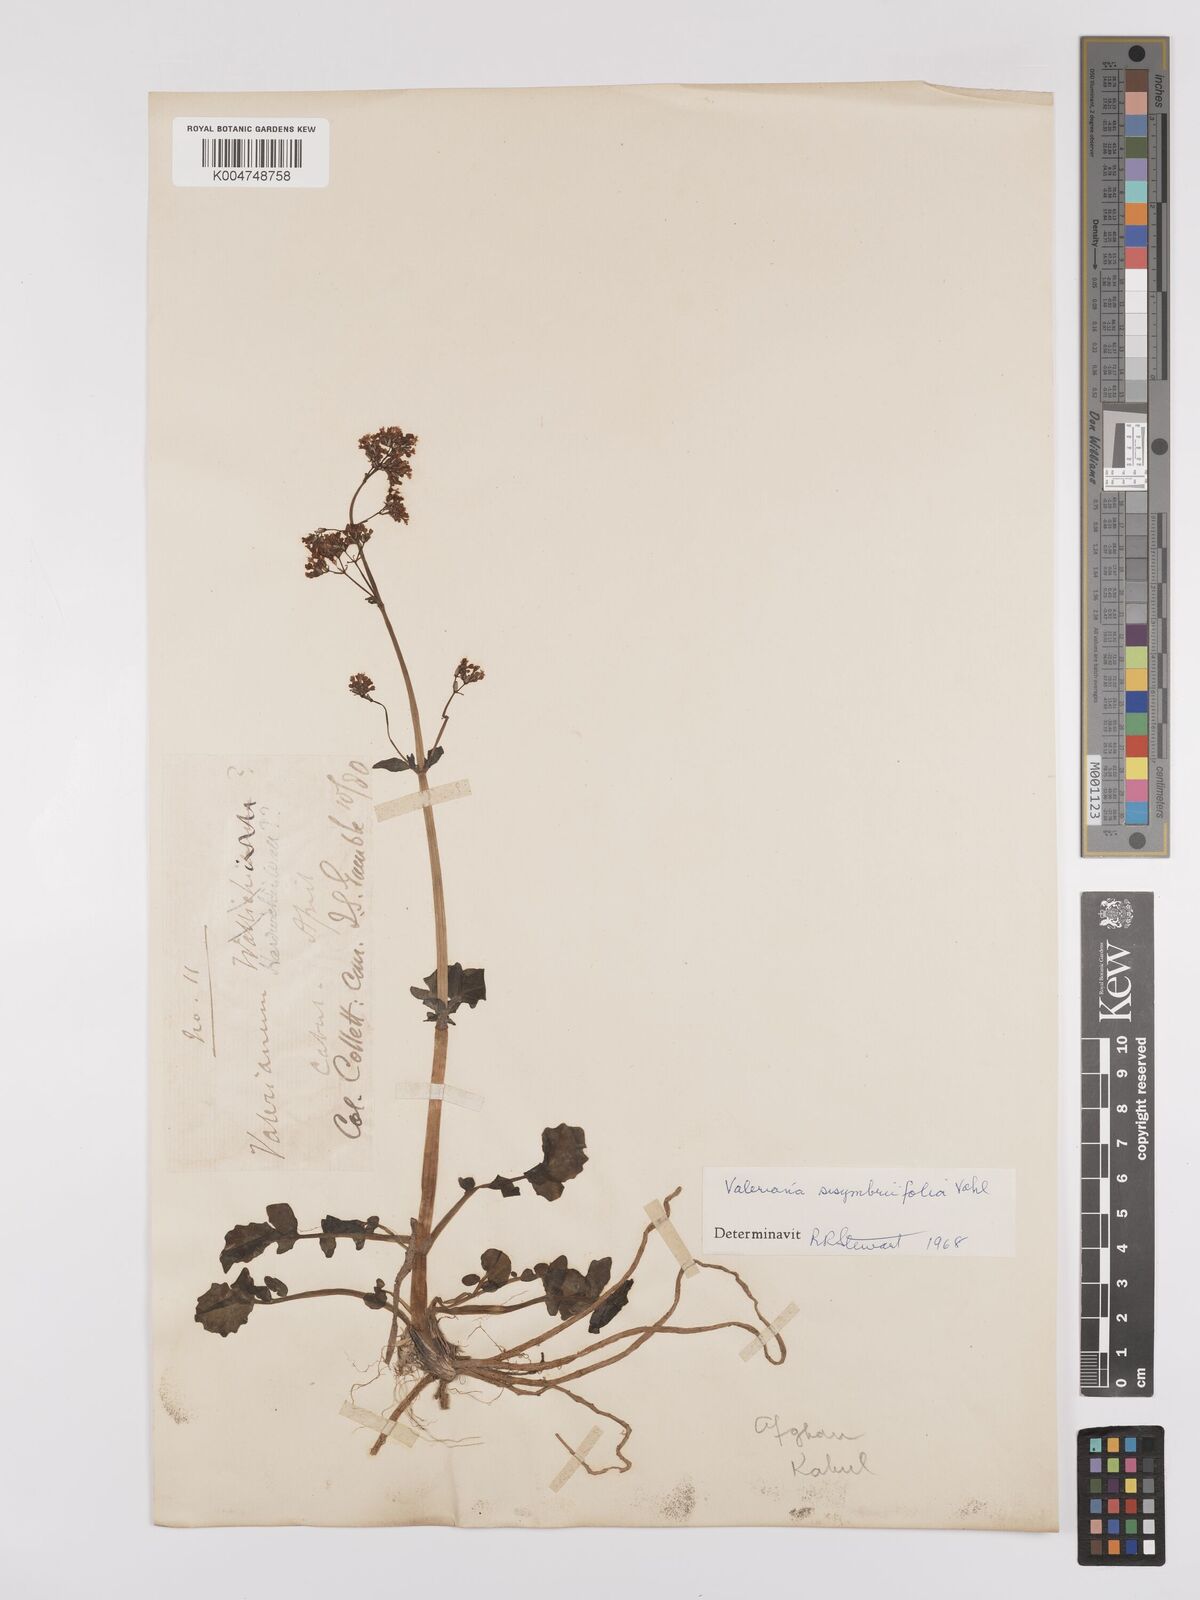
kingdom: Plantae
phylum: Tracheophyta
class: Magnoliopsida
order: Dipsacales
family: Caprifoliaceae
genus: Valeriana
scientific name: Valeriana
